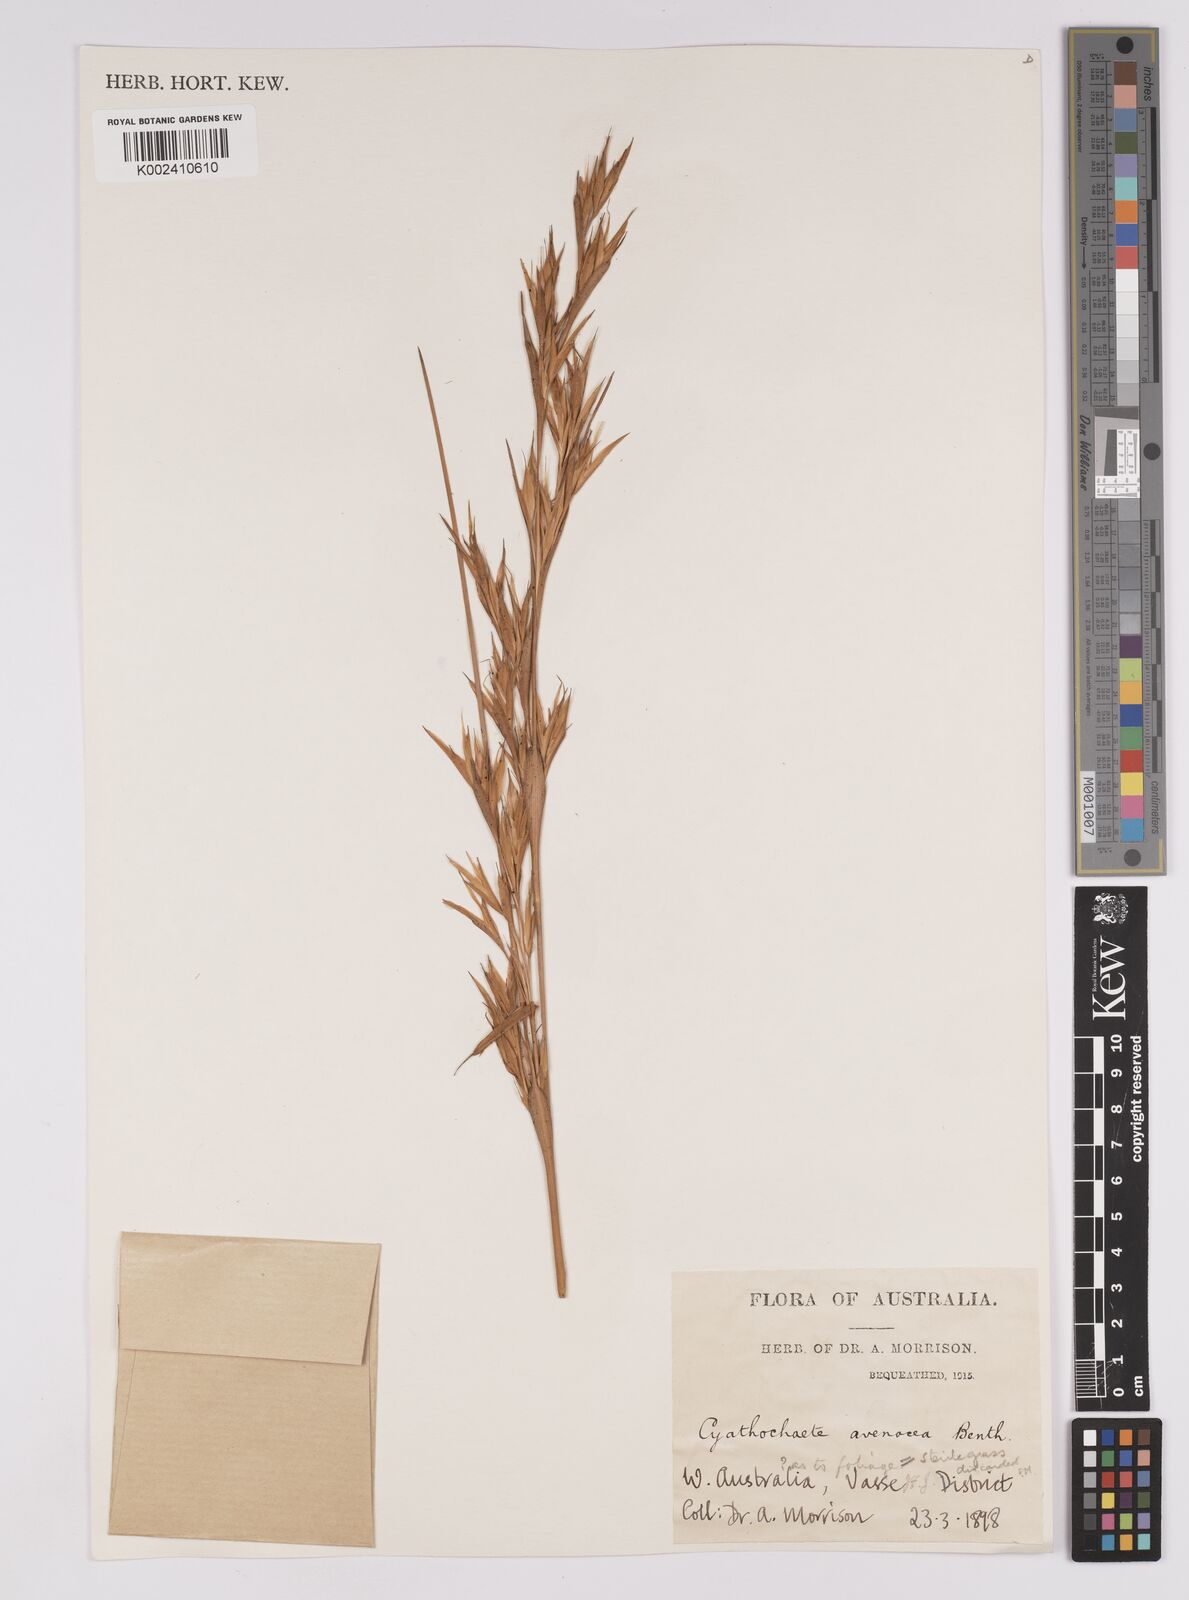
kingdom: Plantae
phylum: Tracheophyta
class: Liliopsida
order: Poales
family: Cyperaceae
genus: Cyathochaeta
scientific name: Cyathochaeta avenacea
